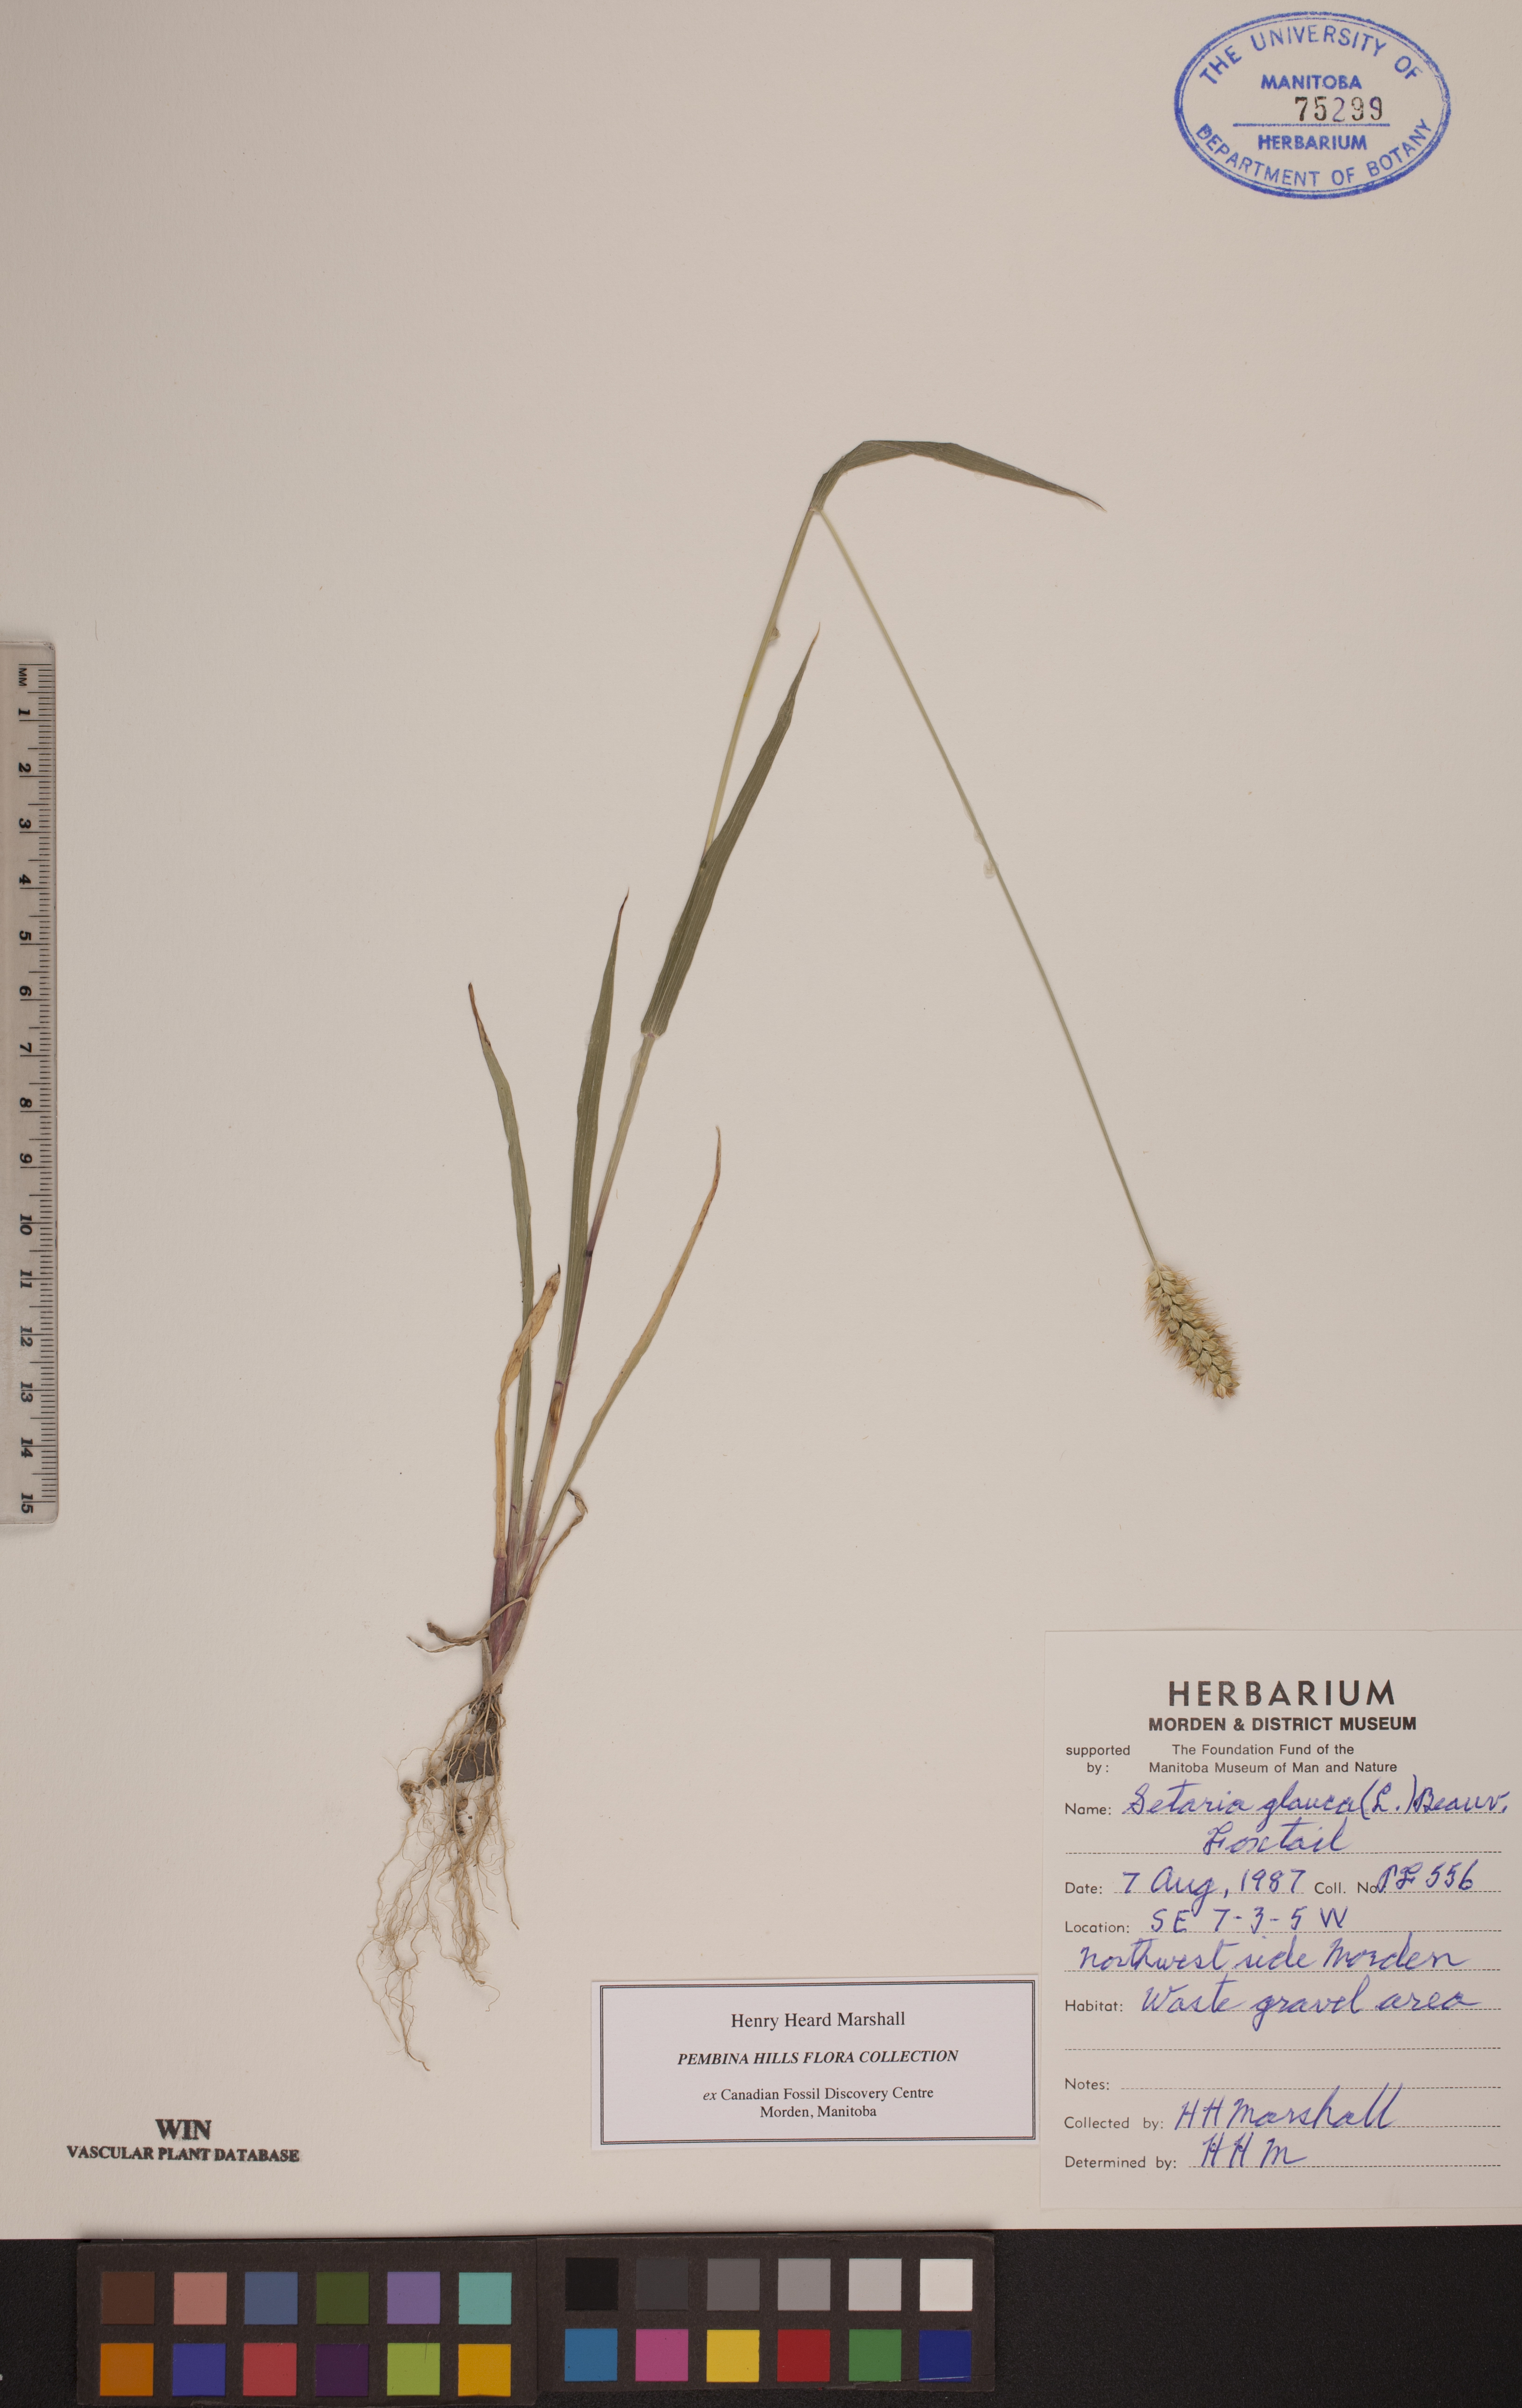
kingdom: Plantae
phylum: Tracheophyta
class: Liliopsida
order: Poales
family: Poaceae
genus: Cenchrus
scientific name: Cenchrus americanus
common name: Pearl millet
